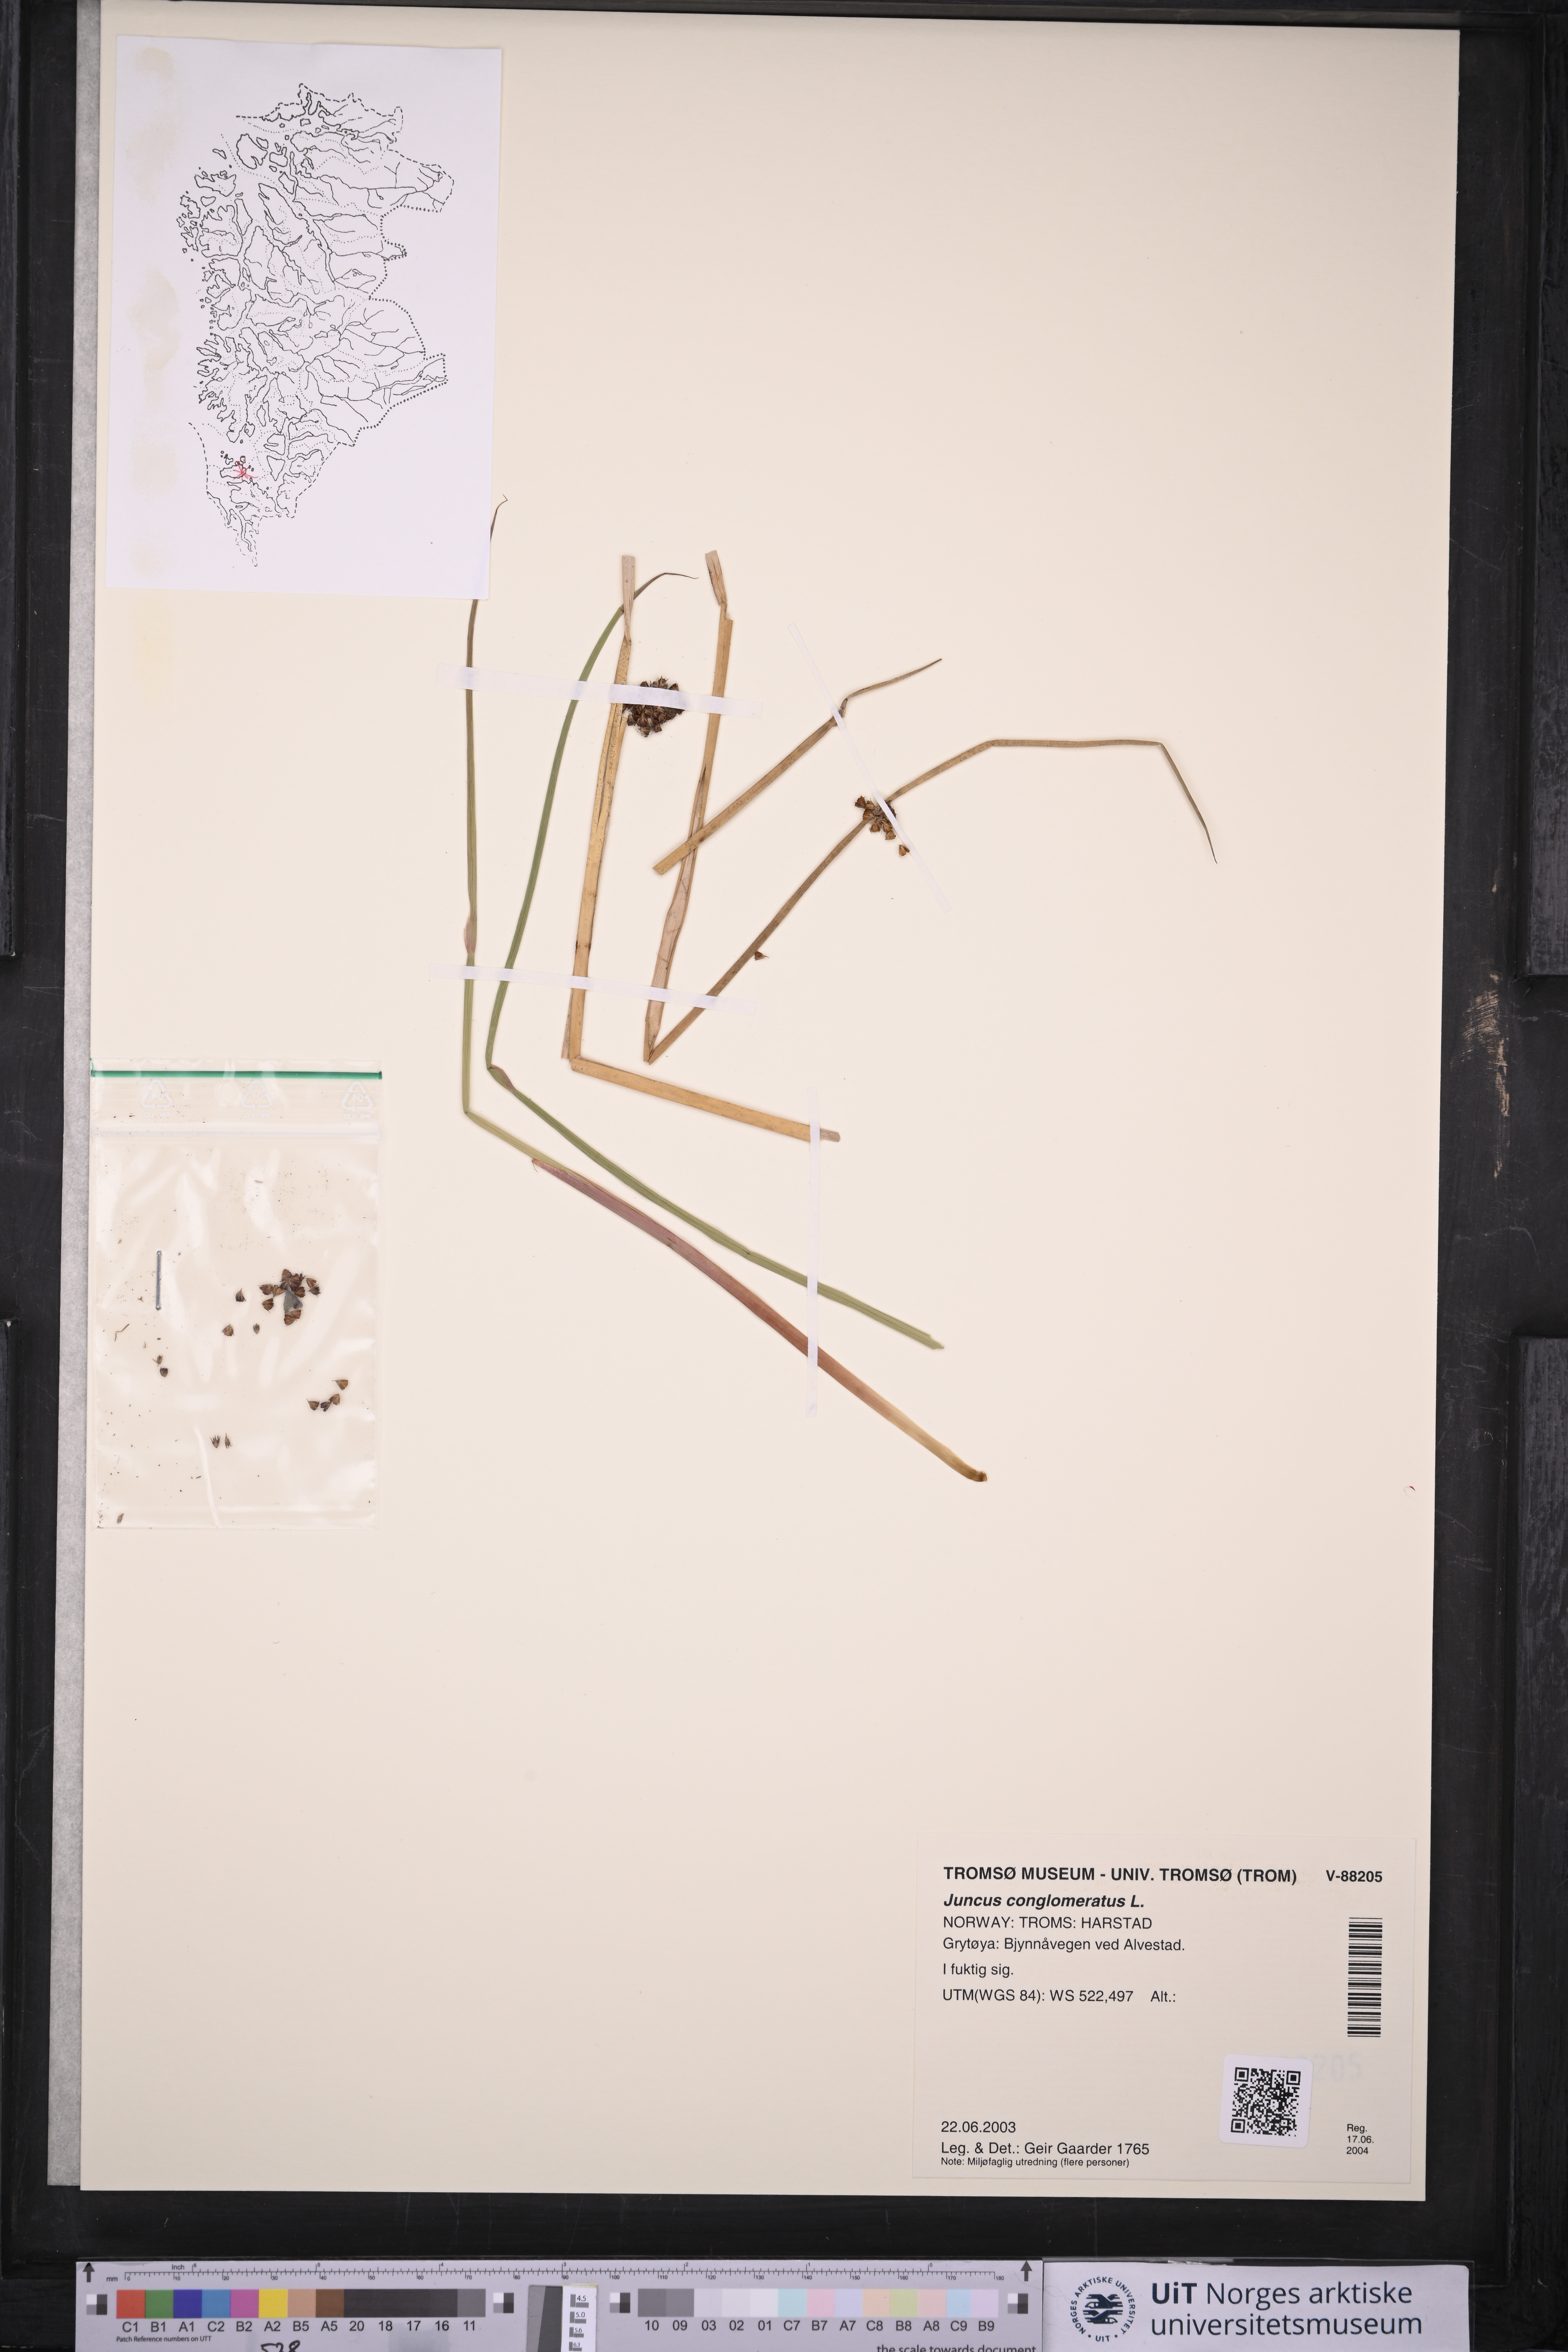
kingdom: Plantae
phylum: Tracheophyta
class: Liliopsida
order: Poales
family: Juncaceae
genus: Juncus
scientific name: Juncus conglomeratus
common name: Compact rush
